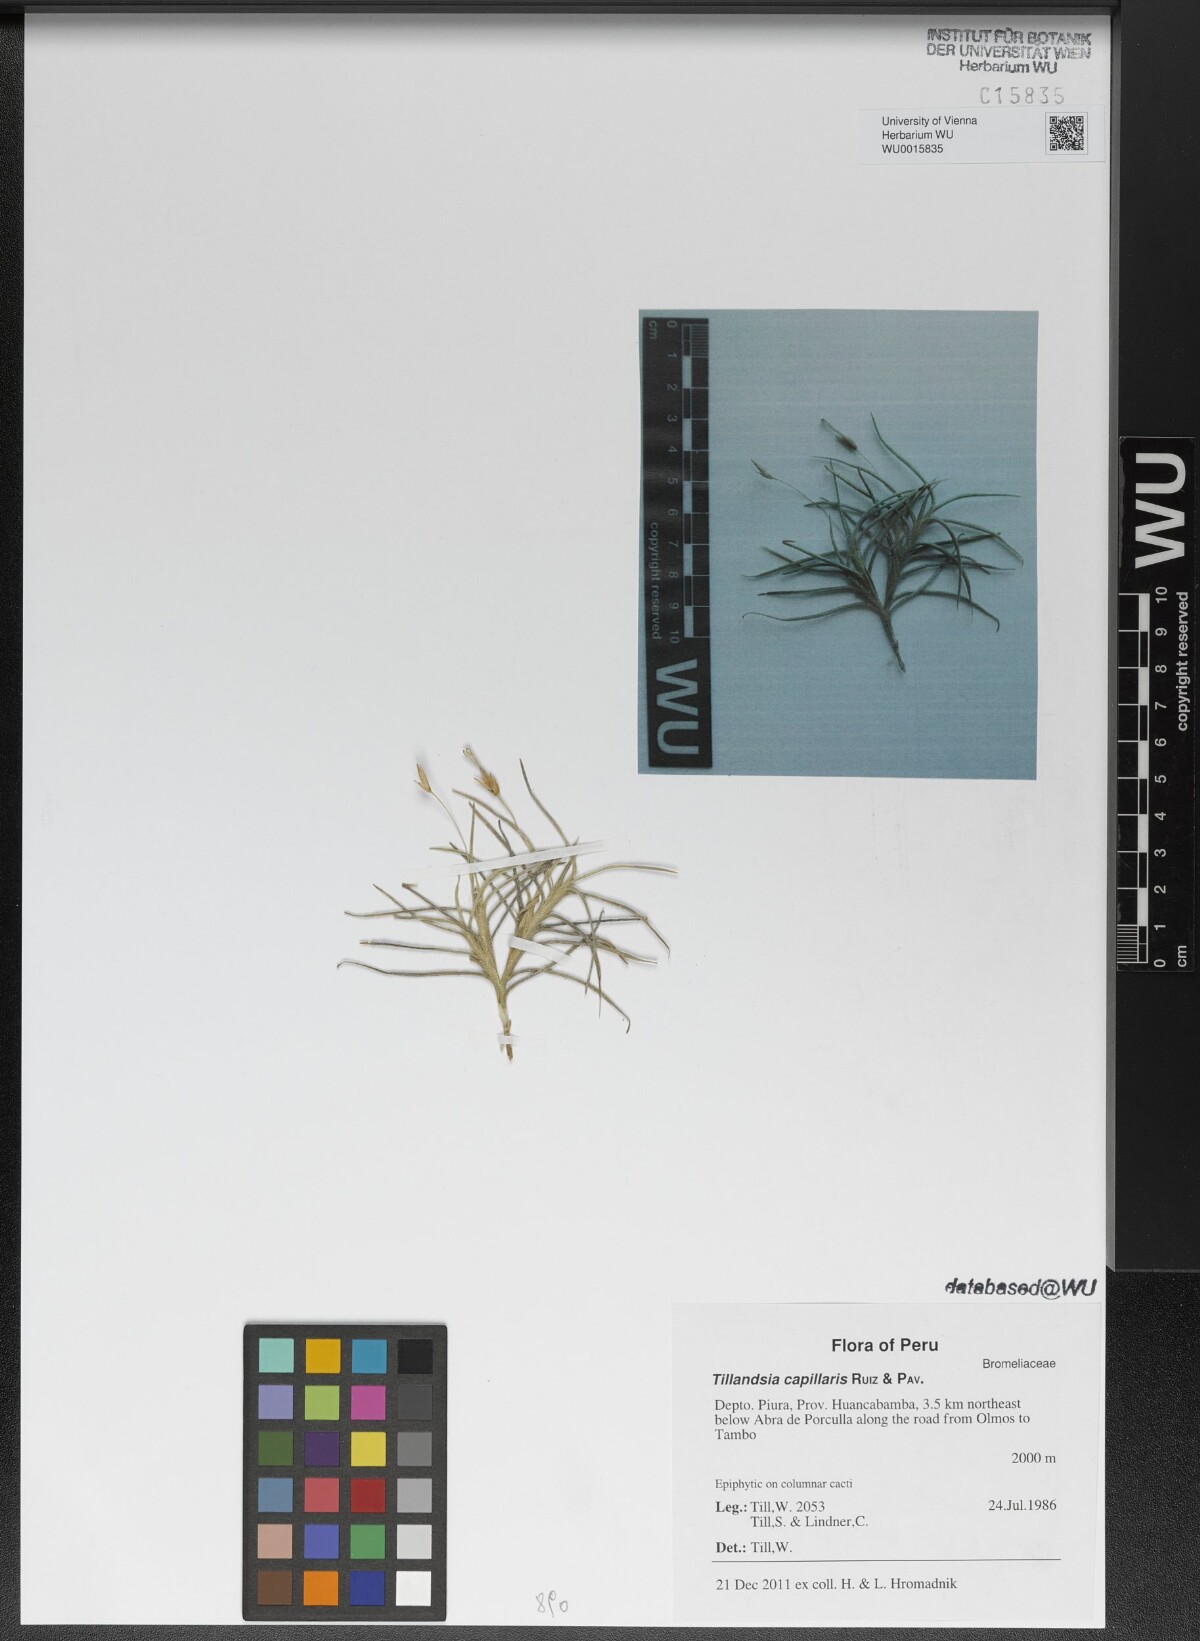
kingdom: Plantae
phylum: Tracheophyta
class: Liliopsida
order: Poales
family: Bromeliaceae
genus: Tillandsia
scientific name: Tillandsia capillaris
